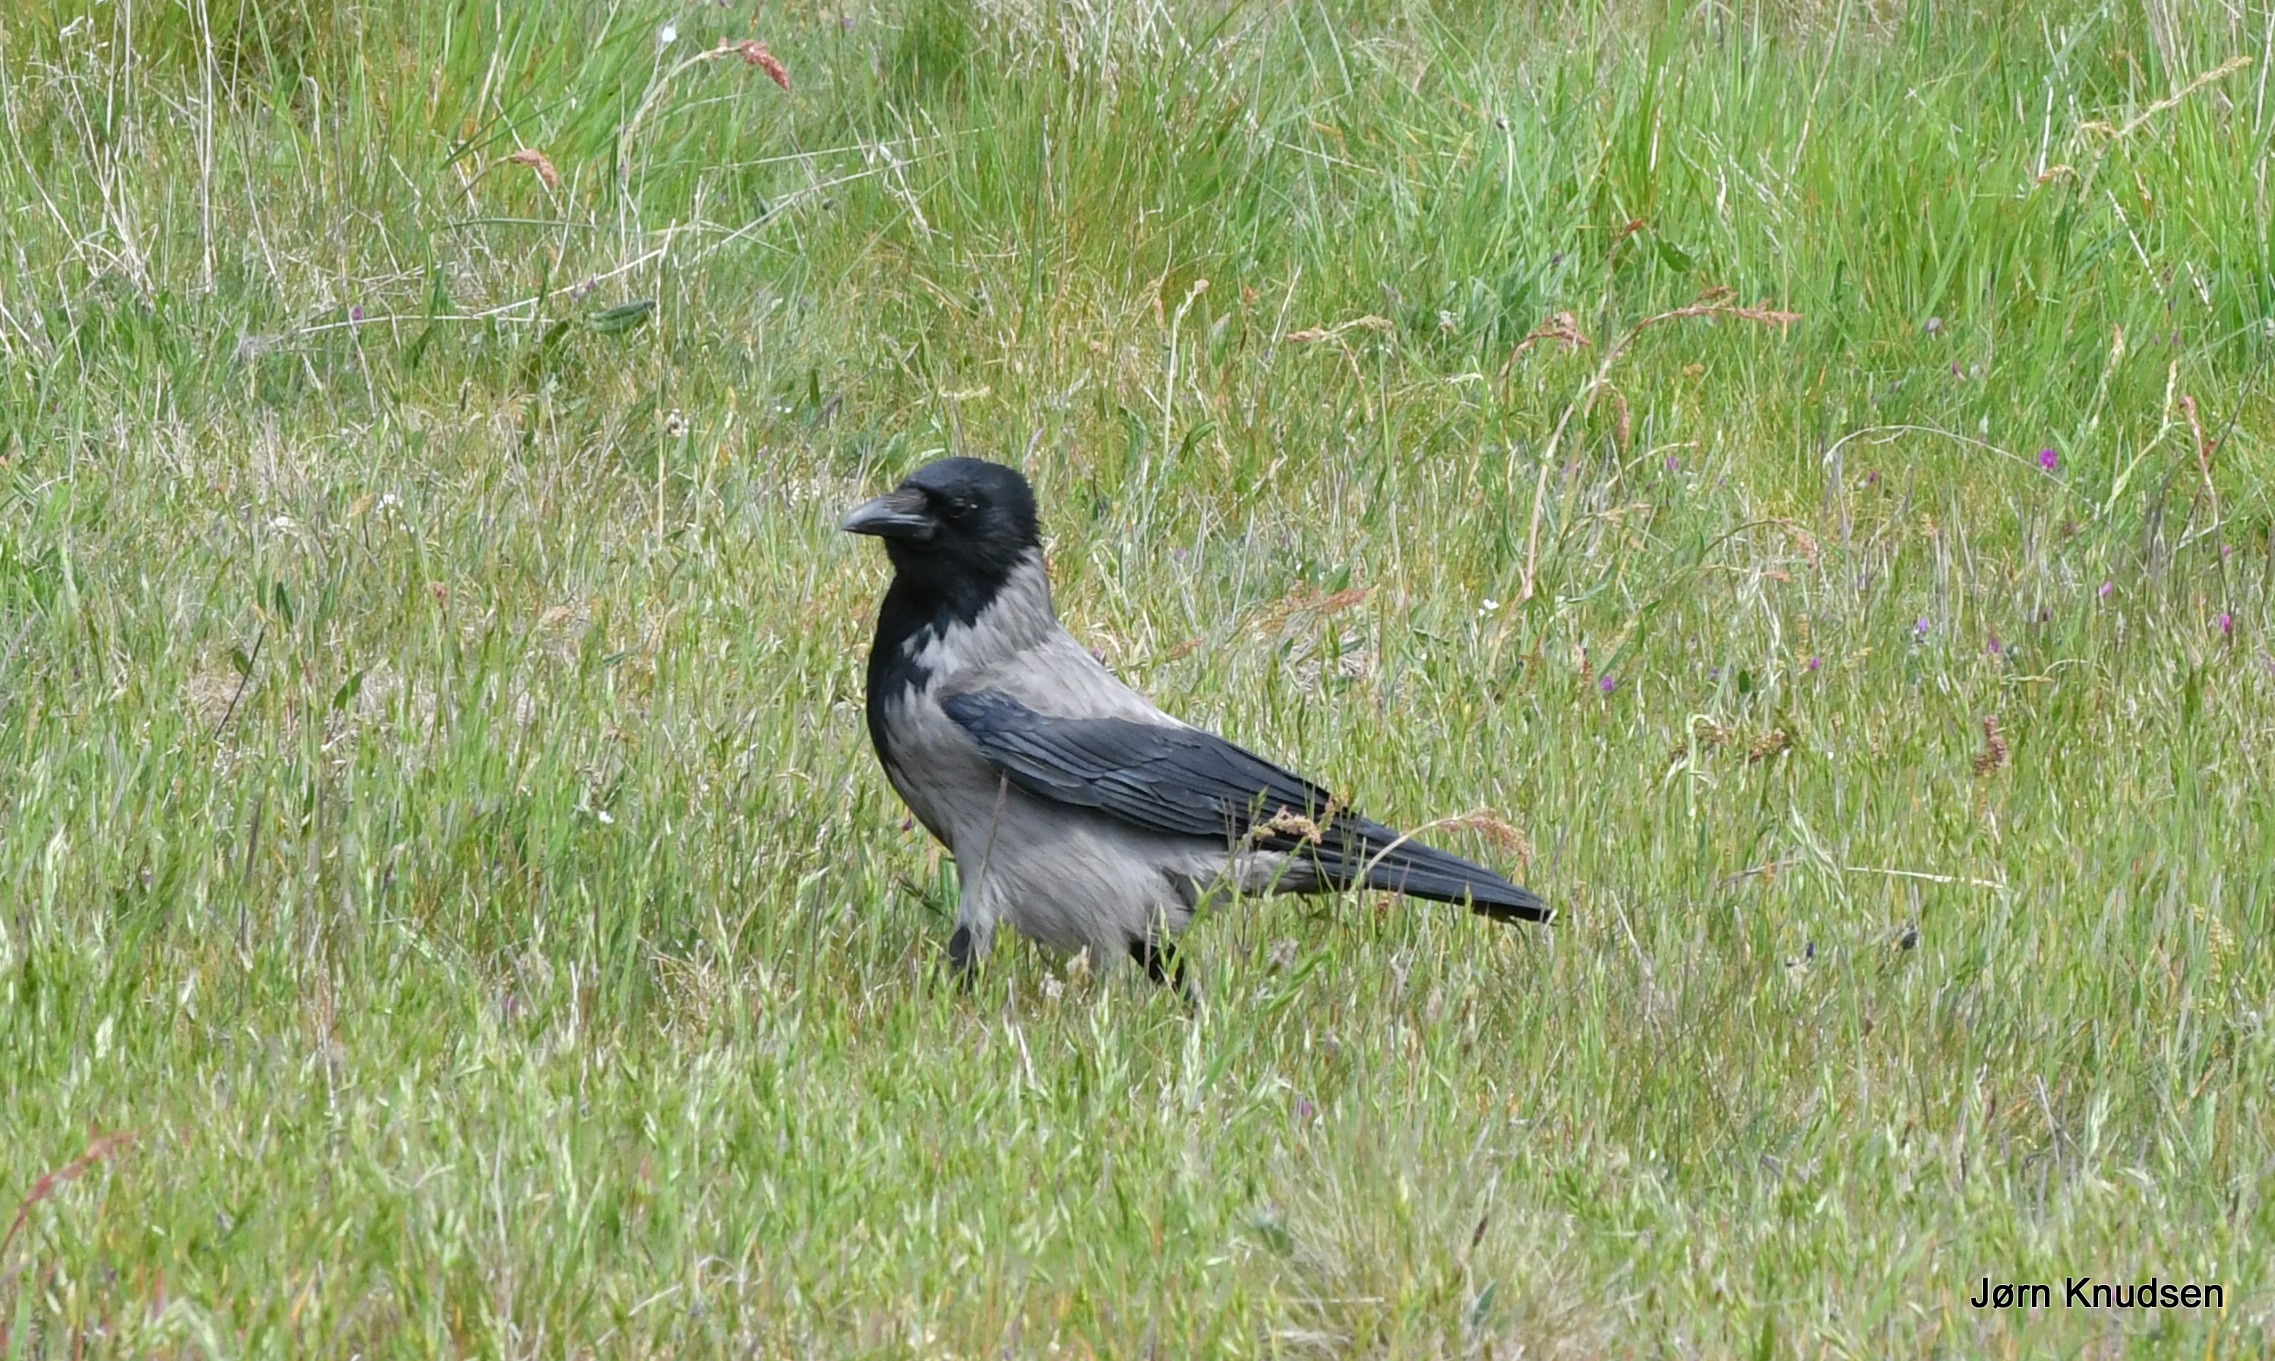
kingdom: Animalia
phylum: Chordata
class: Aves
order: Passeriformes
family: Corvidae
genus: Corvus
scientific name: Corvus cornix
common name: Gråkrage
